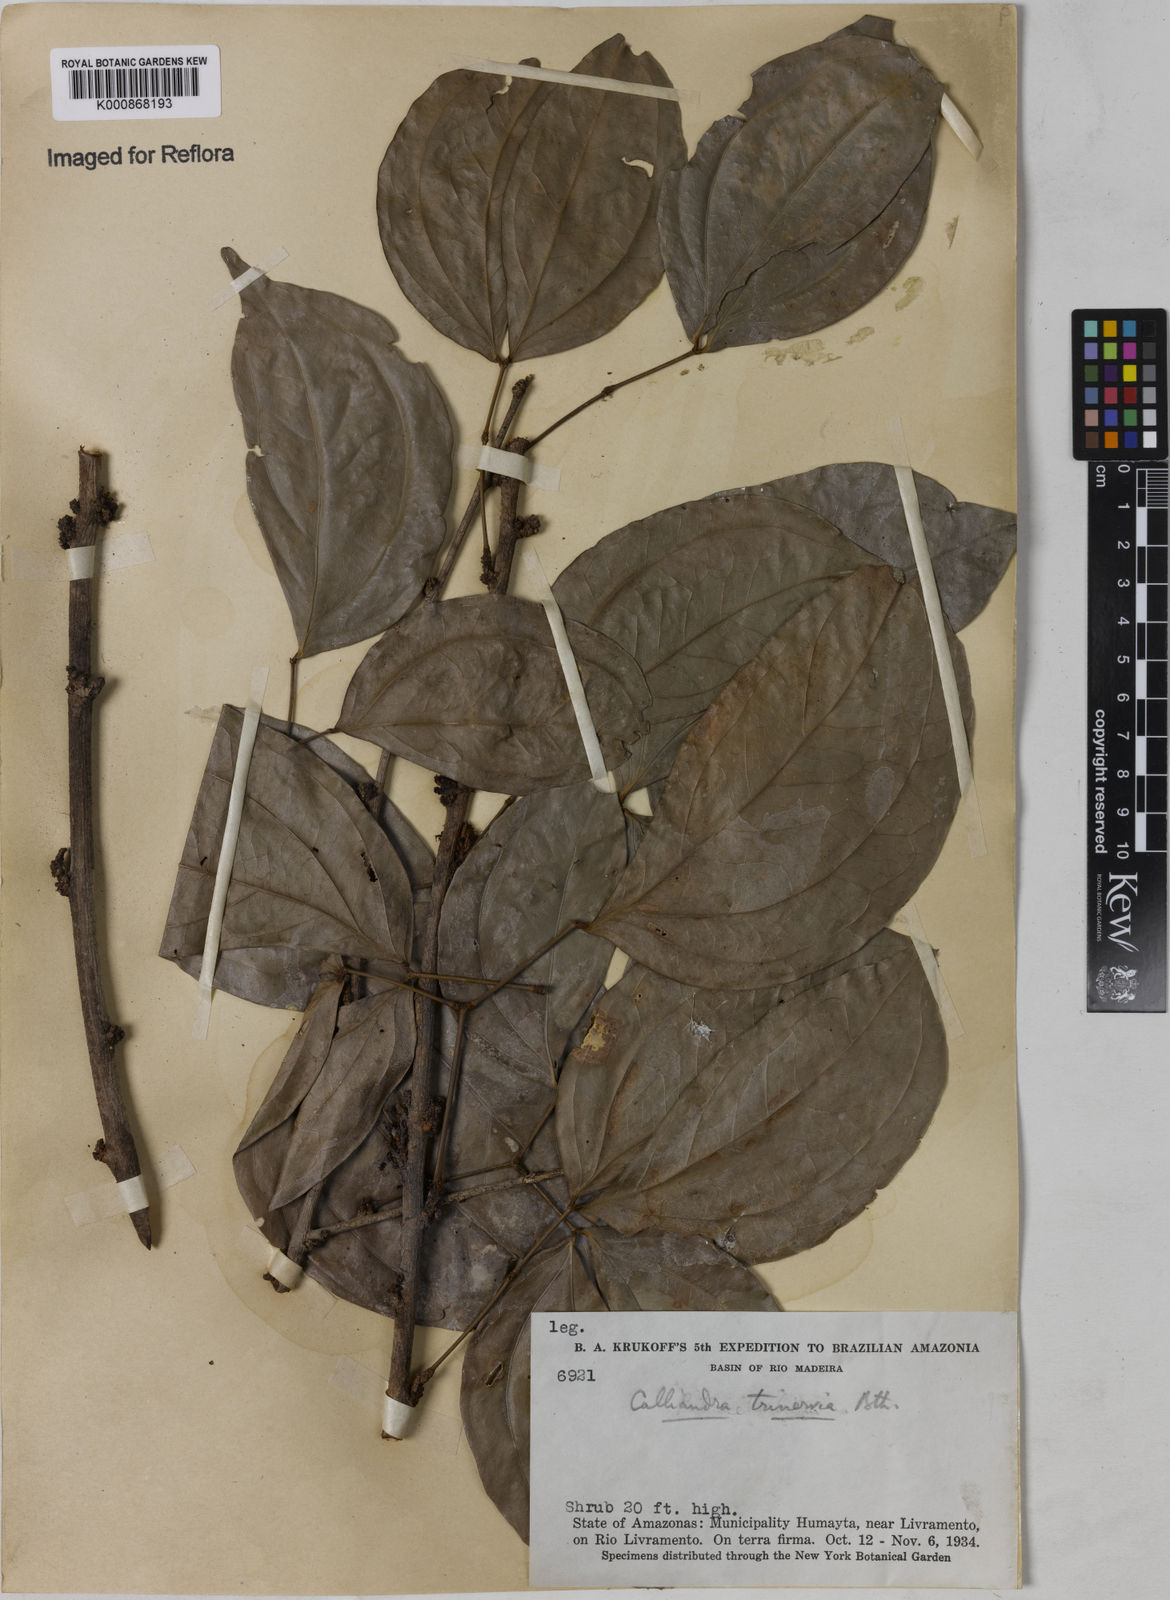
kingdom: Plantae
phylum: Tracheophyta
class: Magnoliopsida
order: Fabales
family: Fabaceae
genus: Calliandra
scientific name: Calliandra trinervia
